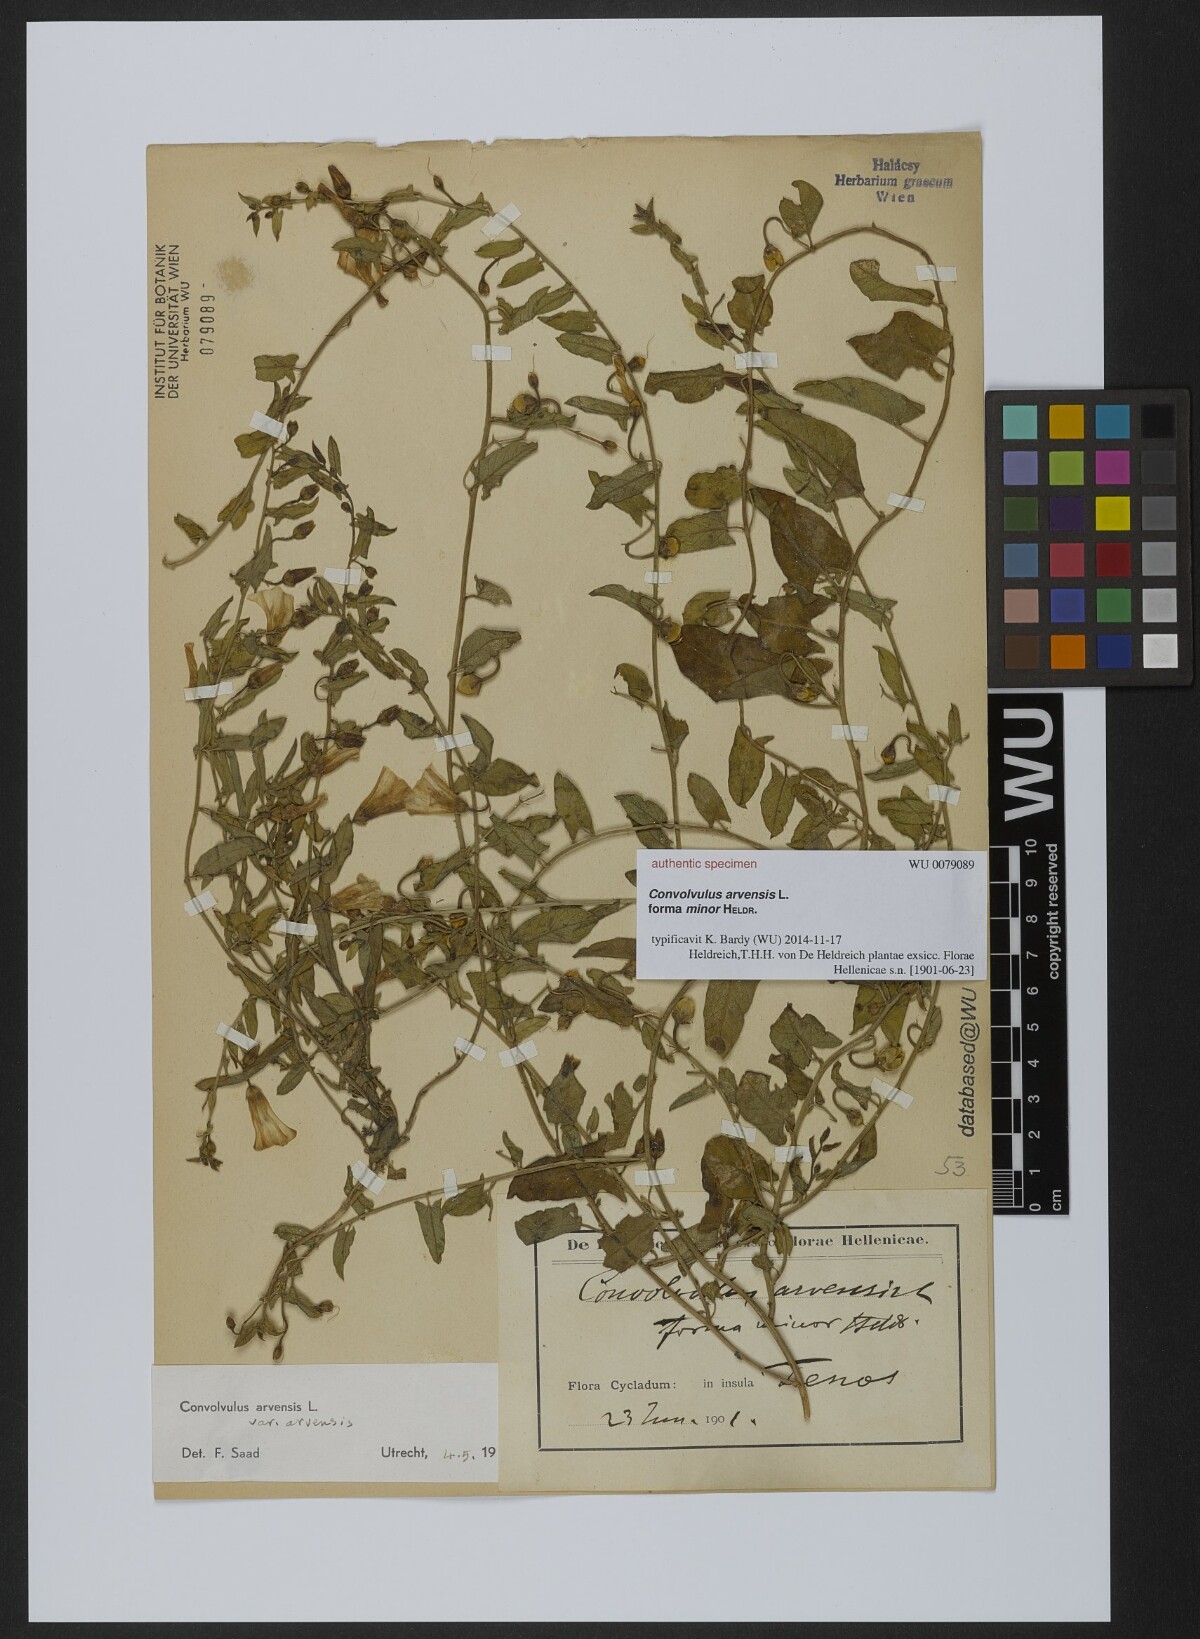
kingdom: Plantae
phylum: Tracheophyta
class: Magnoliopsida
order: Solanales
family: Convolvulaceae
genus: Convolvulus
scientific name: Convolvulus arvensis
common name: Field bindweed
